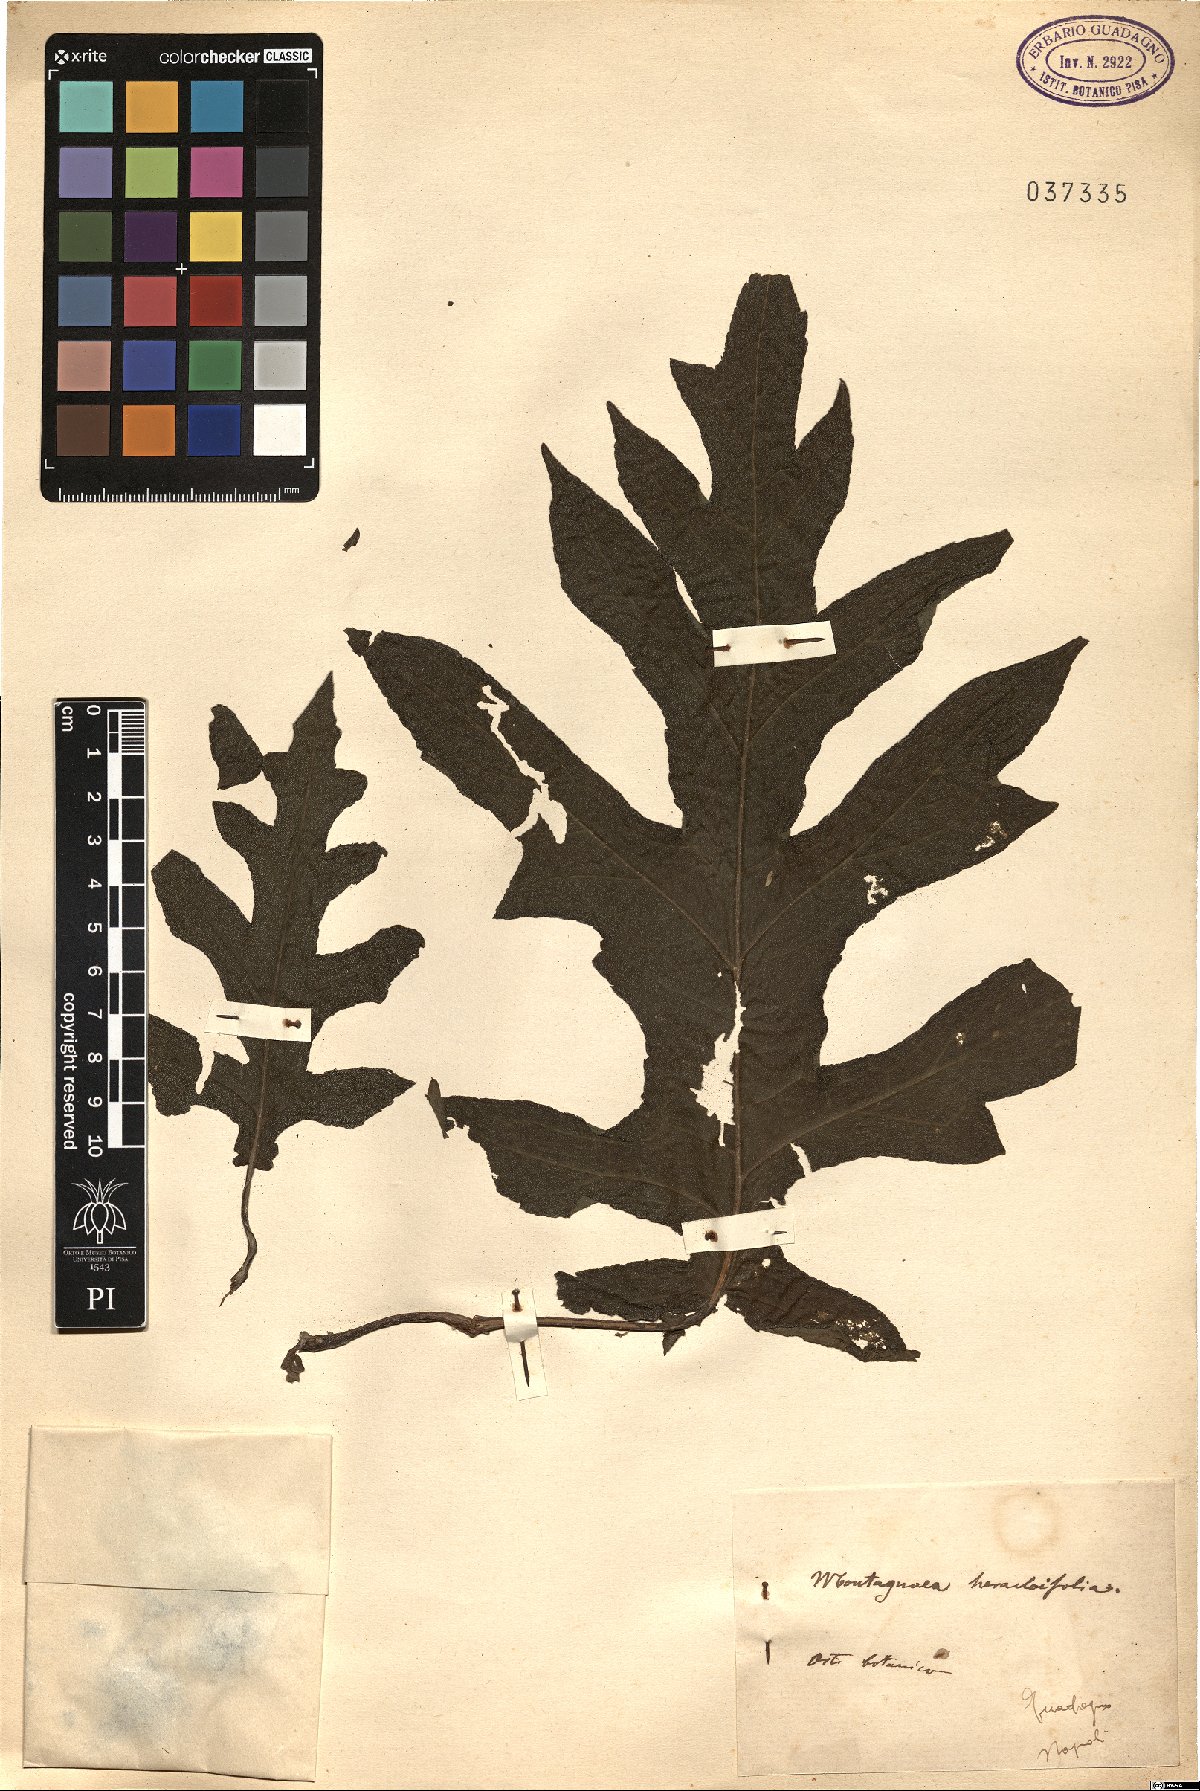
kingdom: Plantae
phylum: Tracheophyta
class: Magnoliopsida
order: Asterales
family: Asteraceae
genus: Montanoa
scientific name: Montanoa bipinnatifida
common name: Mexican daisy bush
